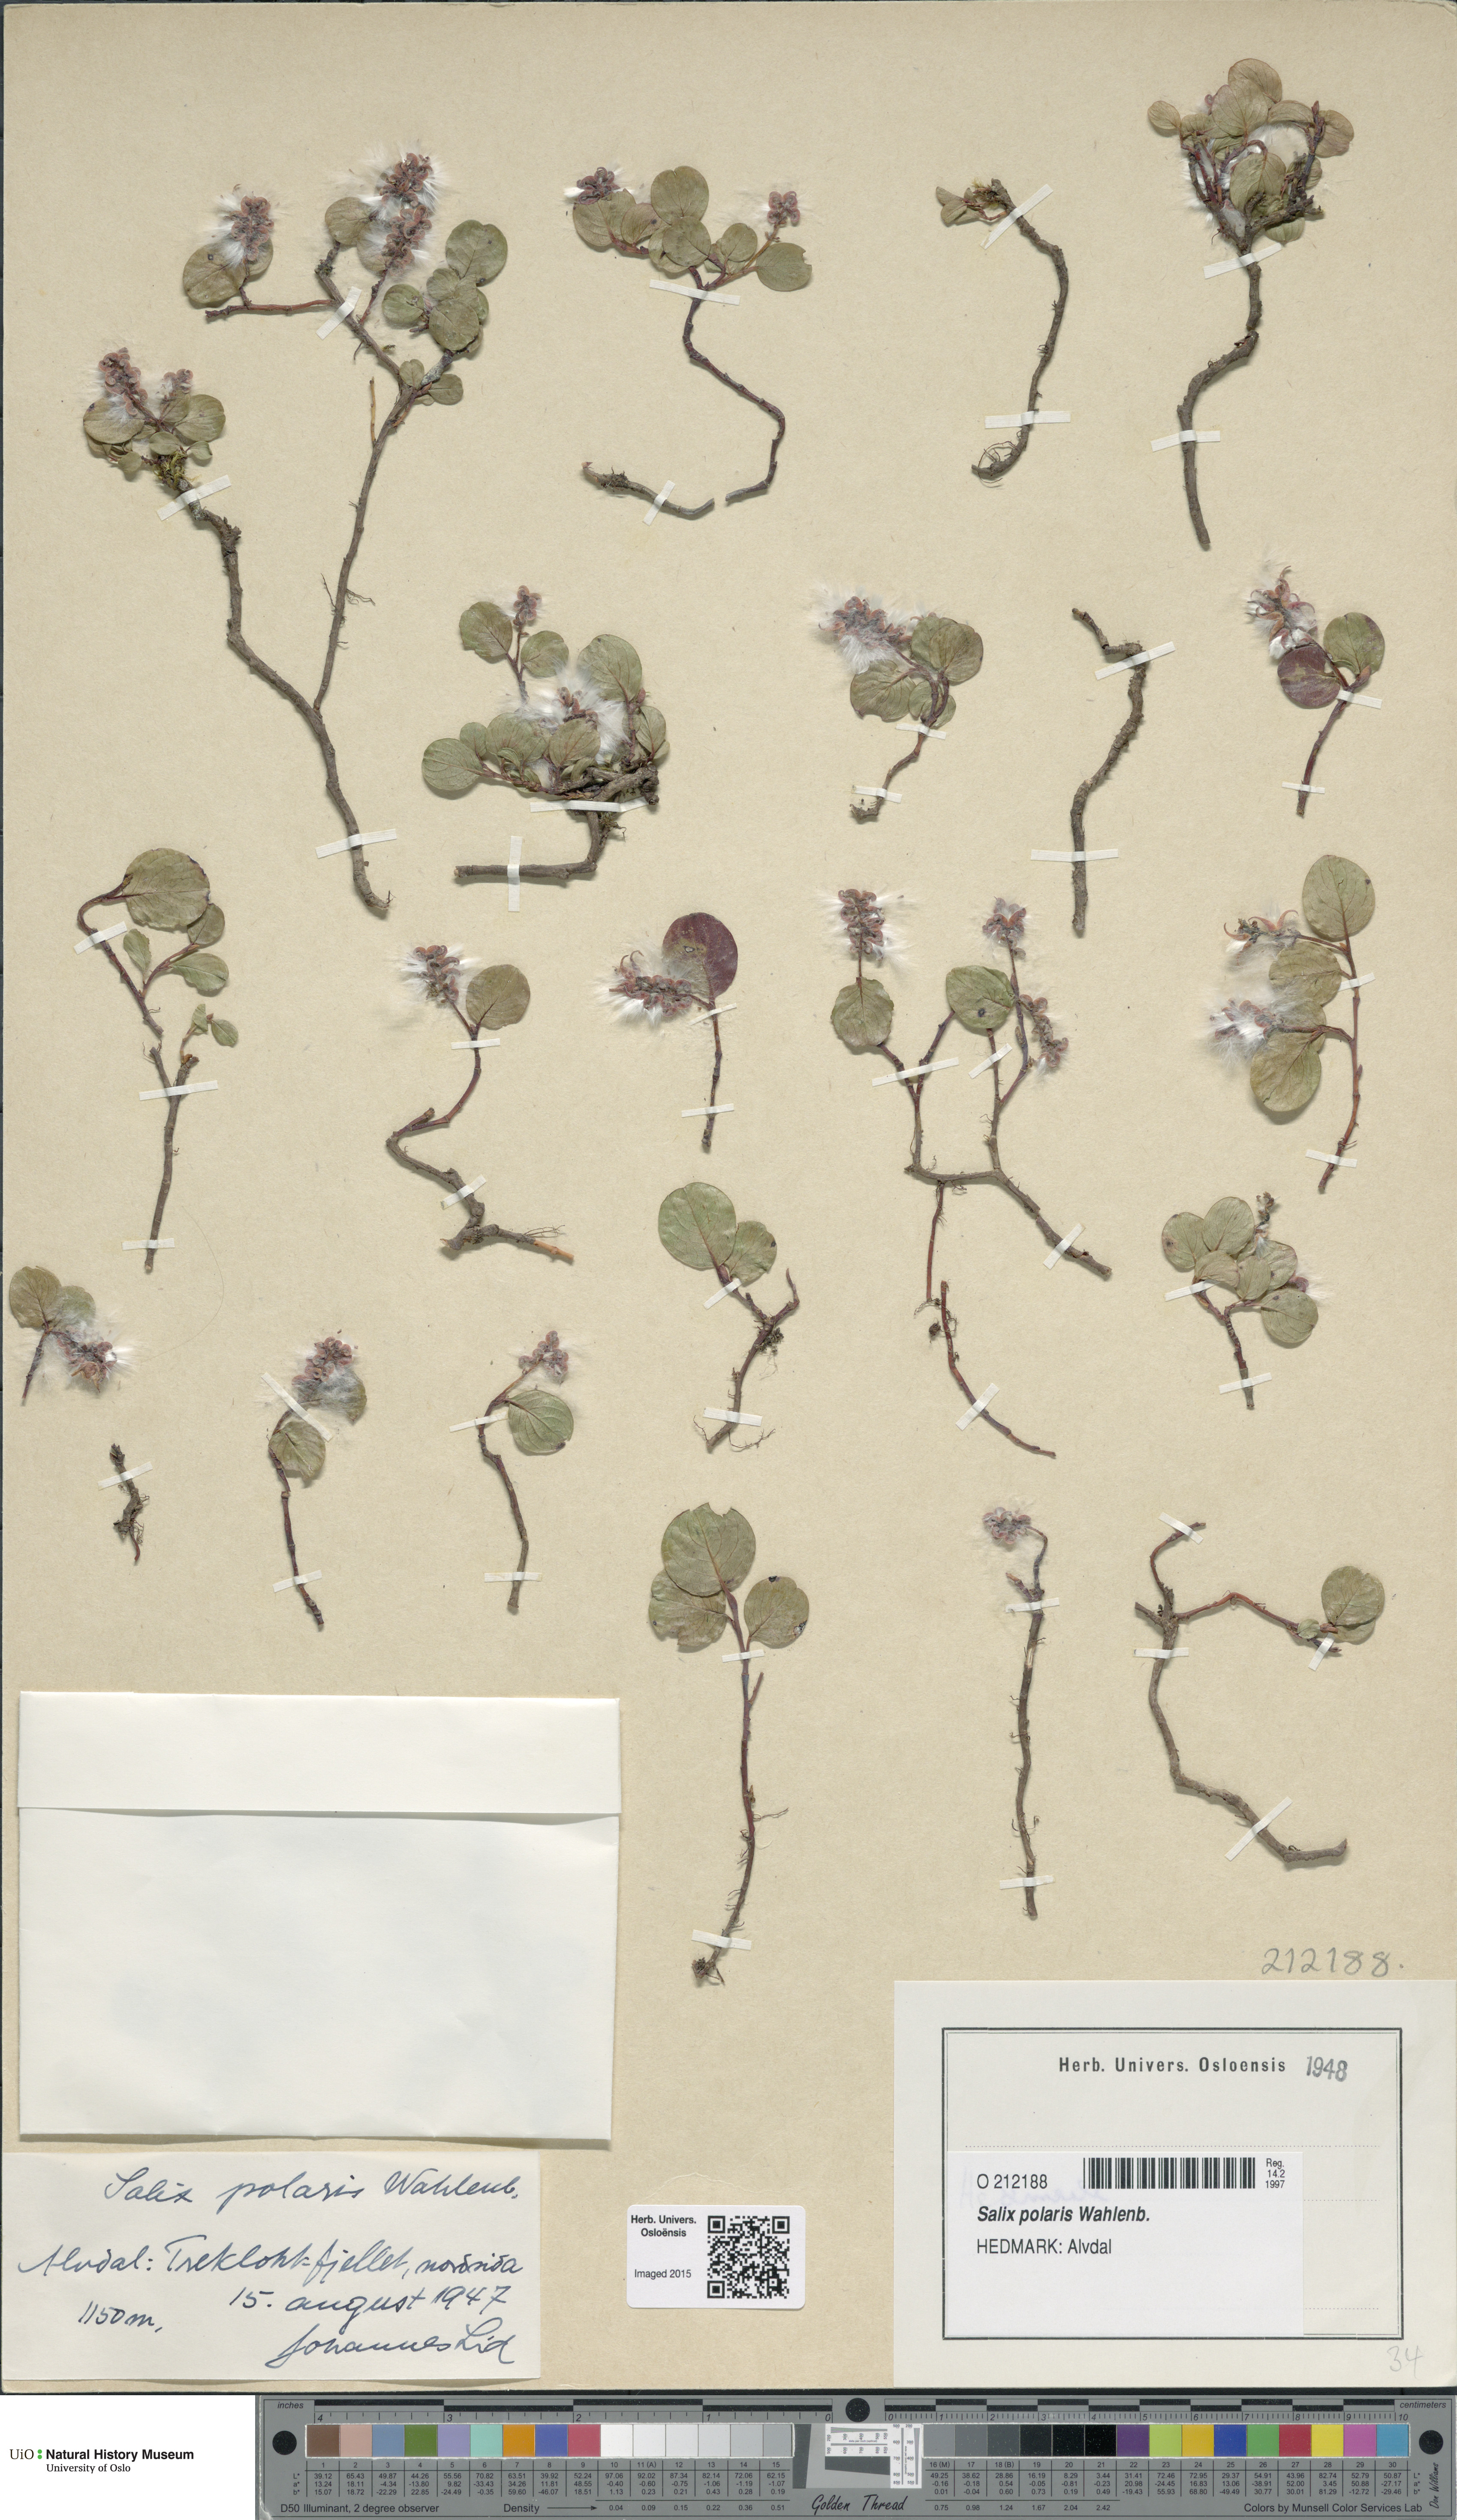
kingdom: Plantae
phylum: Tracheophyta
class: Magnoliopsida
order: Malpighiales
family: Salicaceae
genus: Salix
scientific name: Salix polaris
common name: Polar willow
